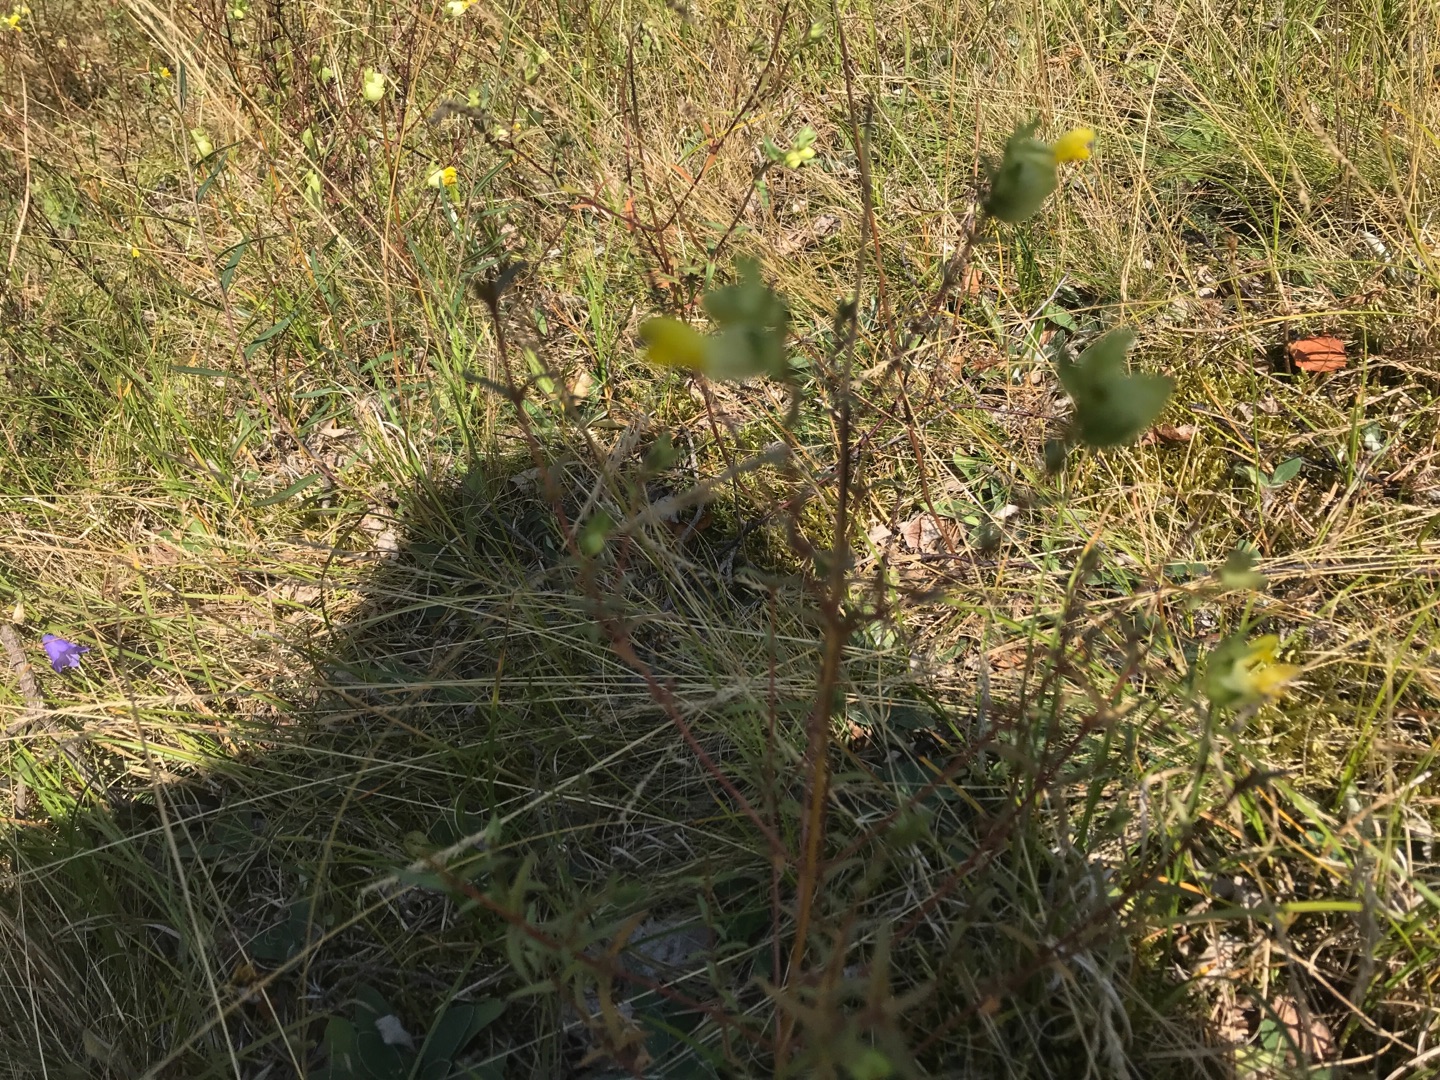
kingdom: Plantae
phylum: Tracheophyta
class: Magnoliopsida
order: Lamiales
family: Orobanchaceae
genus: Rhinanthus
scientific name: Rhinanthus
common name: Skjallerslægten
